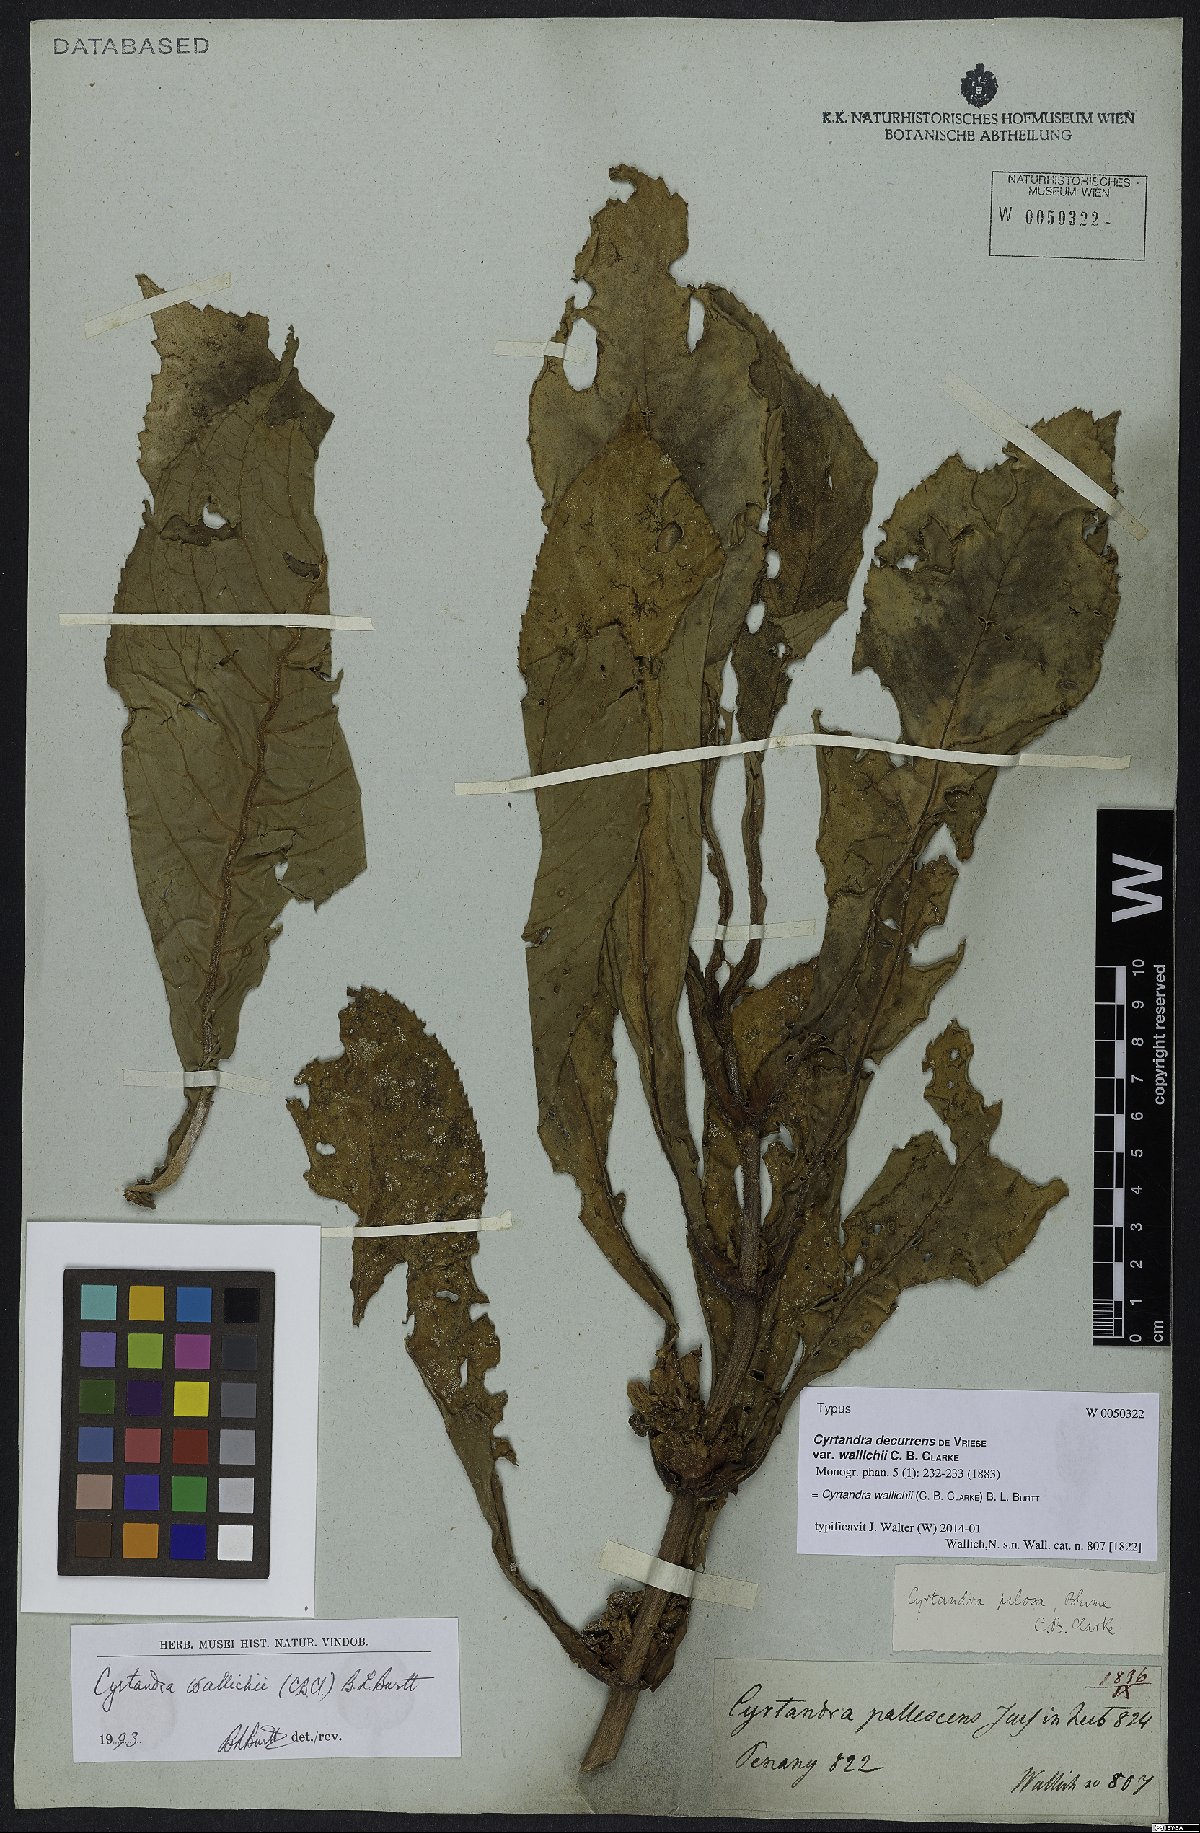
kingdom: Plantae
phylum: Tracheophyta
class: Magnoliopsida
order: Lamiales
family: Gesneriaceae
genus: Cyrtandra
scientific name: Cyrtandra wallichii
